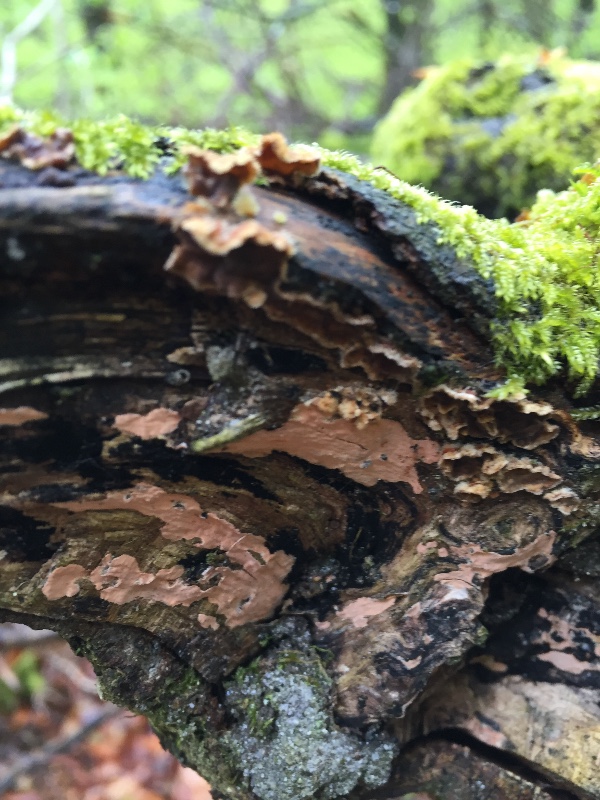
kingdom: Fungi
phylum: Basidiomycota
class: Agaricomycetes
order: Russulales
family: Peniophoraceae
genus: Peniophora
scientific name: Peniophora incarnata
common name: laksefarvet voksskind
